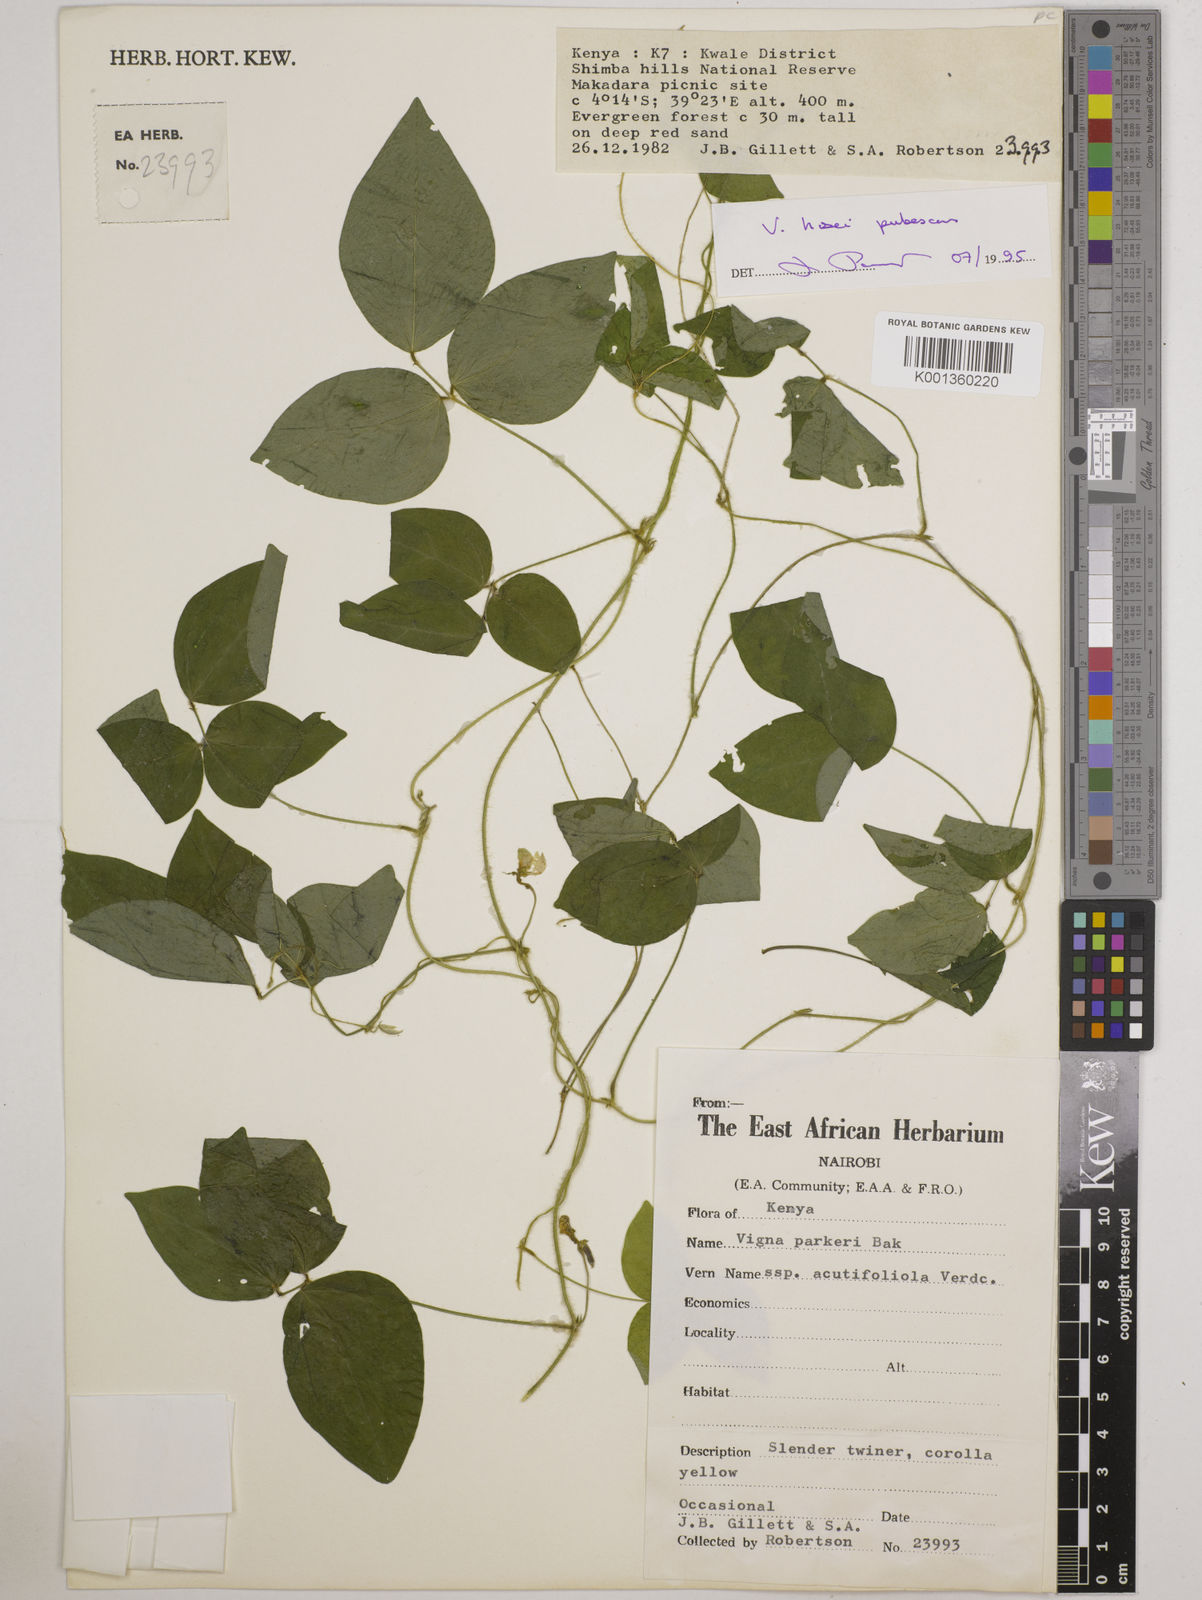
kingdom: Plantae
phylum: Tracheophyta
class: Magnoliopsida
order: Fabales
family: Fabaceae
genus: Vigna
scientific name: Vigna hosei
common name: Sarawak-bean
